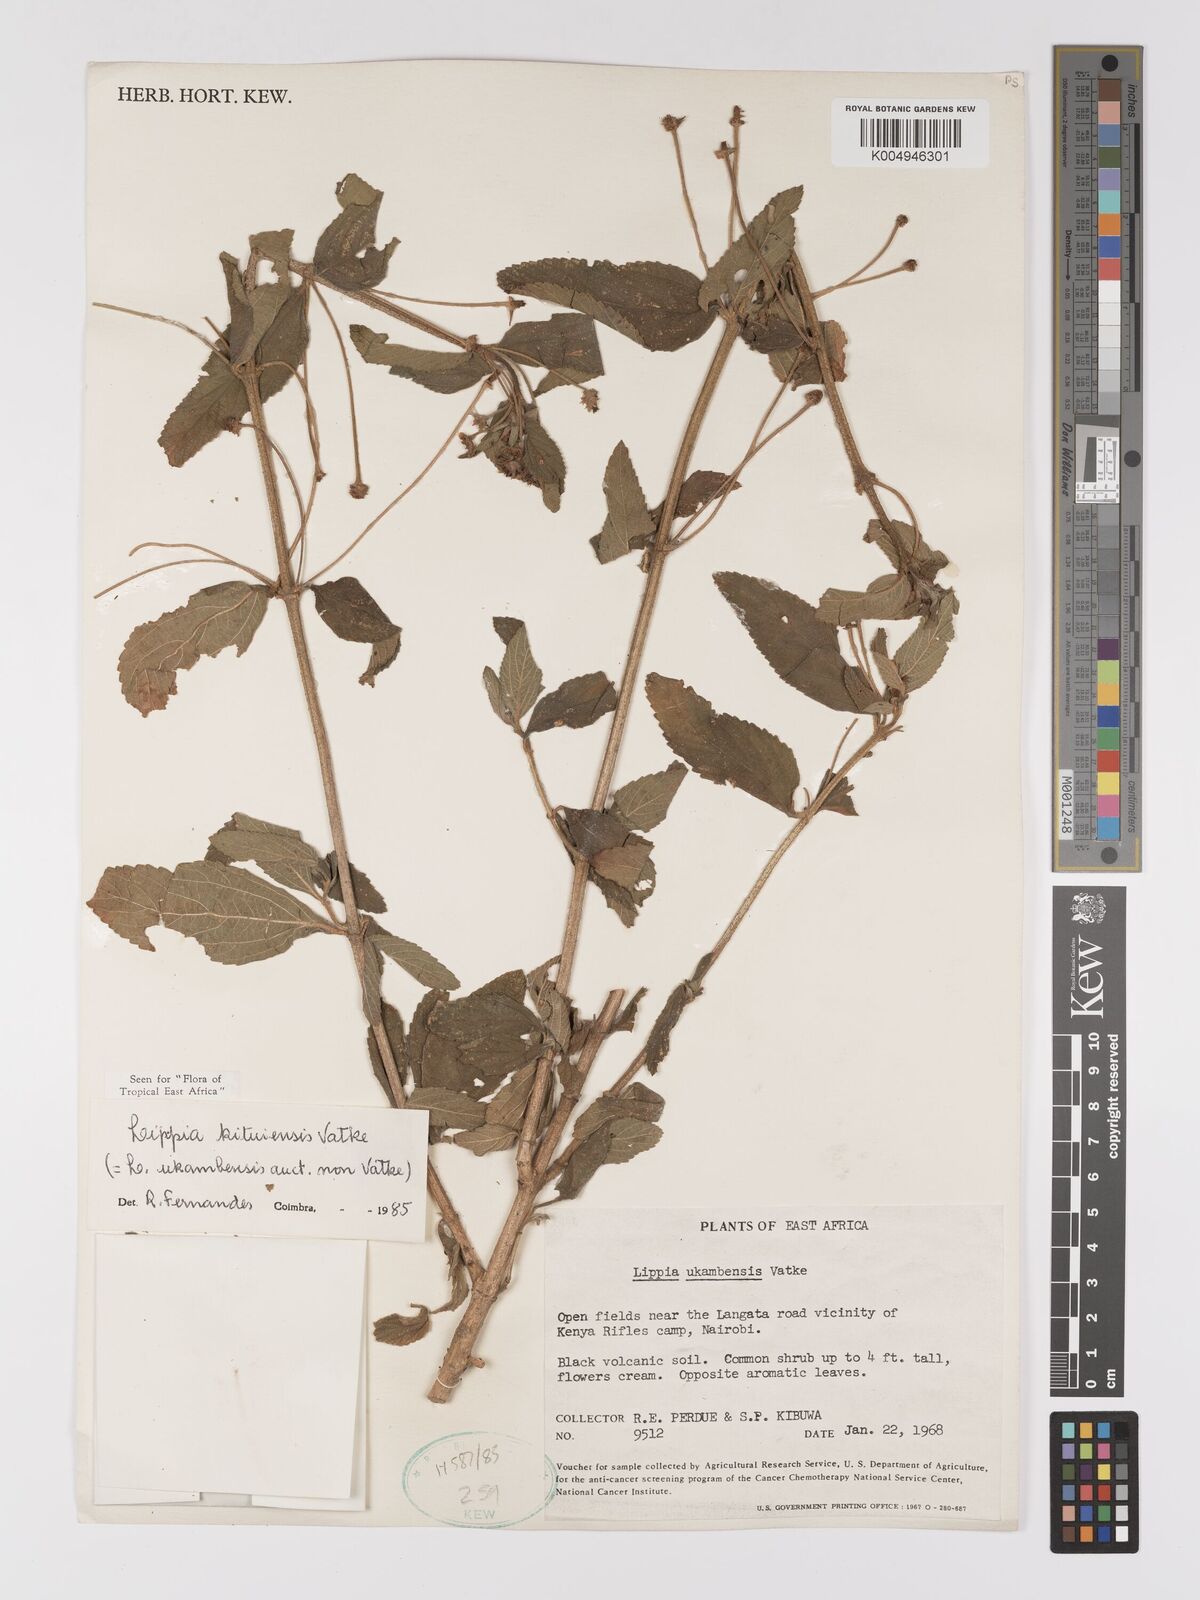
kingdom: Plantae
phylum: Tracheophyta
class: Magnoliopsida
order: Lamiales
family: Verbenaceae
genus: Lippia
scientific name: Lippia kituiensis
